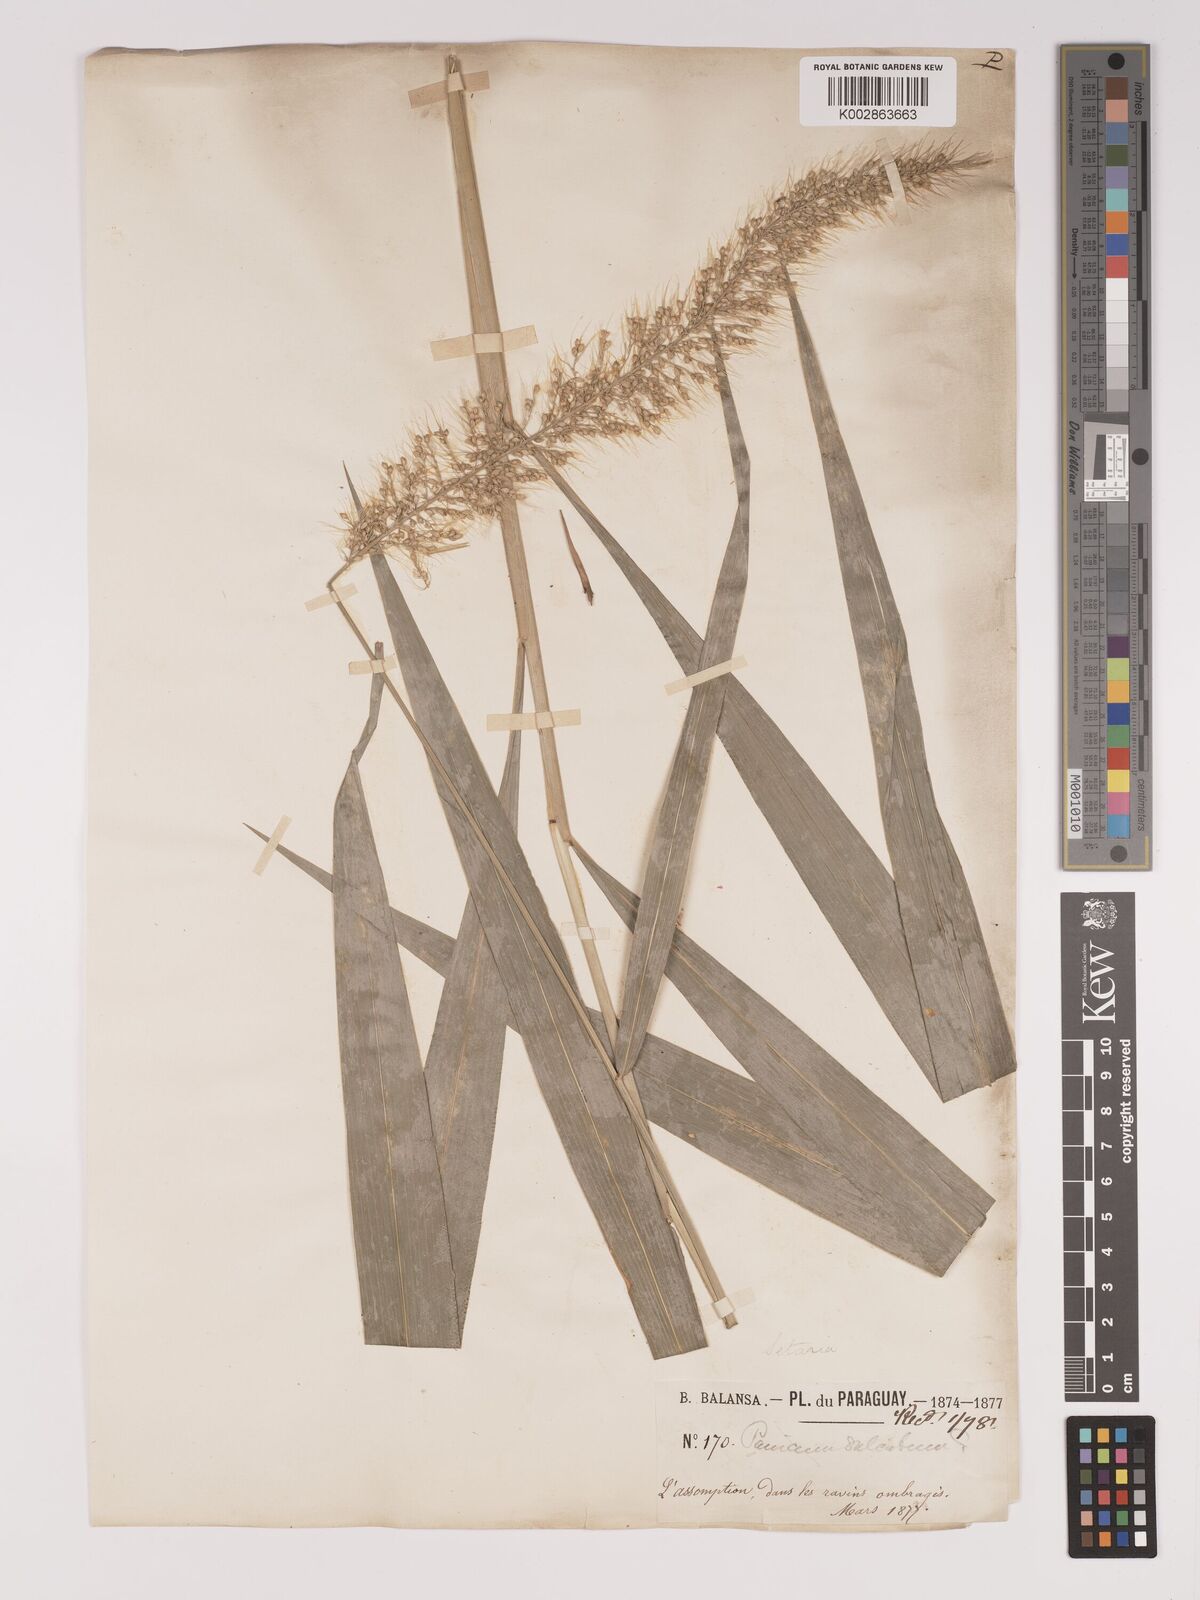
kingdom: Plantae
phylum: Tracheophyta
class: Liliopsida
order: Poales
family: Poaceae
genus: Setaria
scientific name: Setaria vulpiseta
